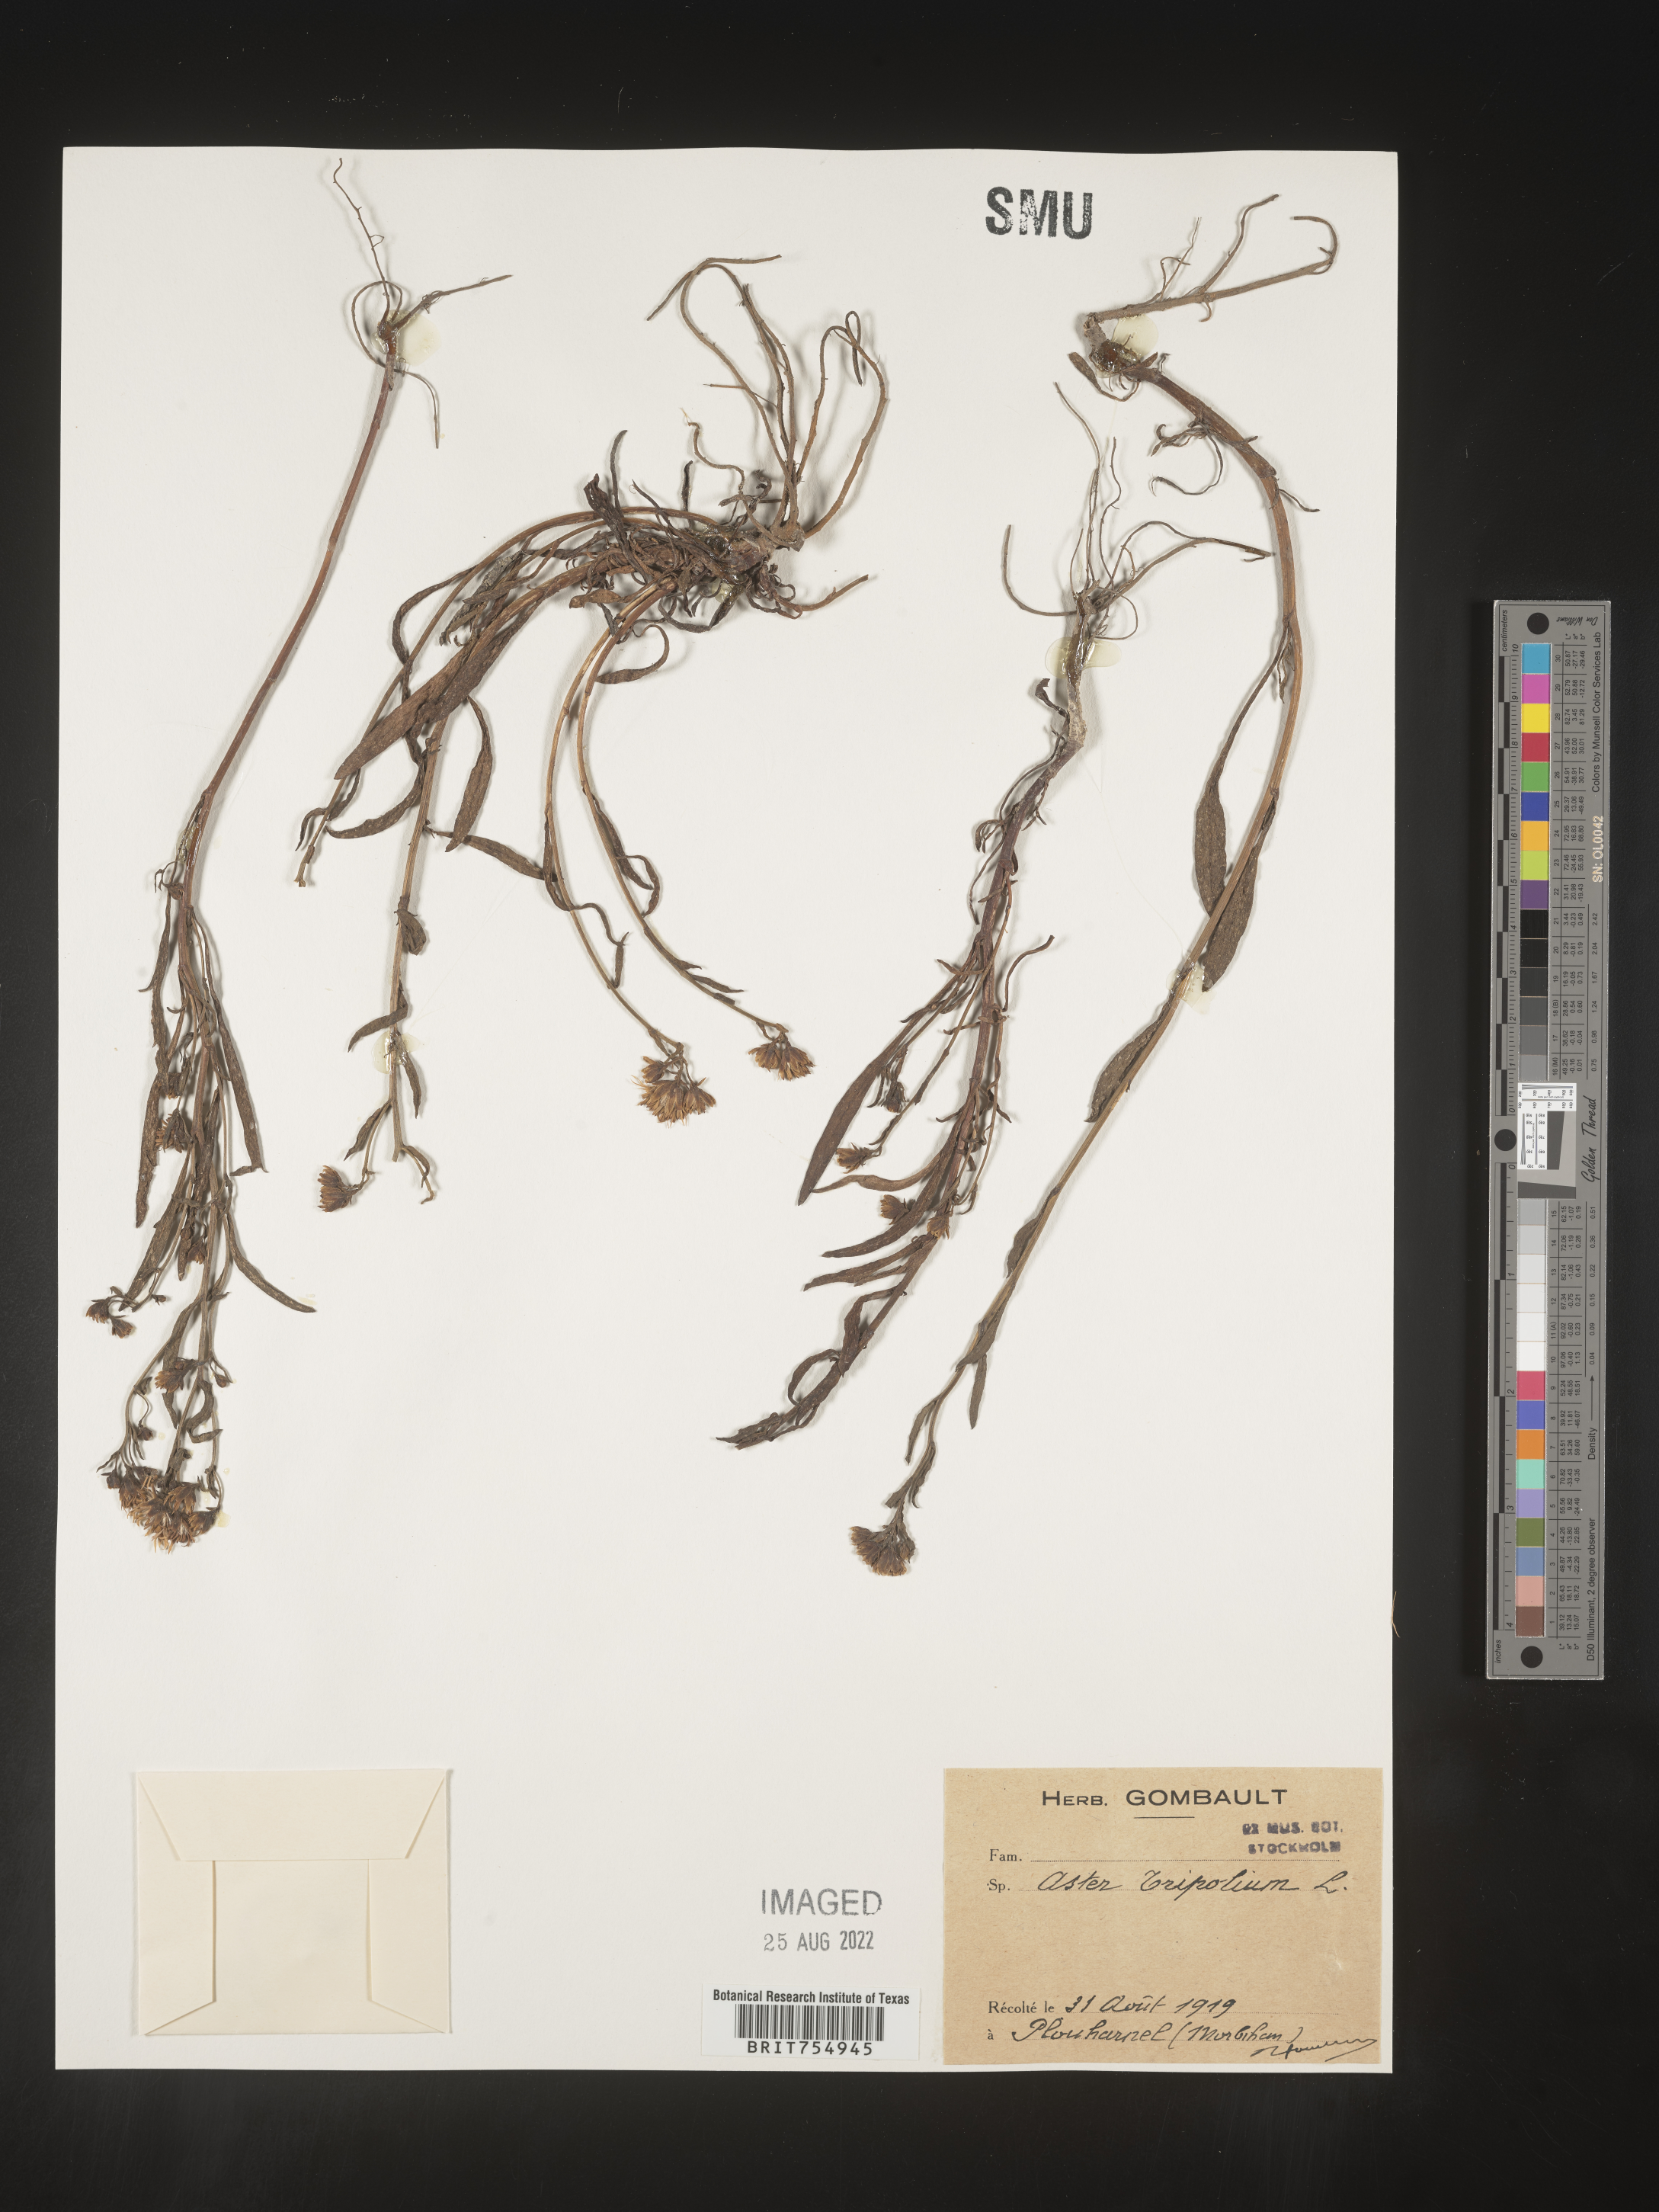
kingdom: Plantae
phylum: Tracheophyta
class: Magnoliopsida
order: Asterales
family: Asteraceae
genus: Symphyotrichum
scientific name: Symphyotrichum
